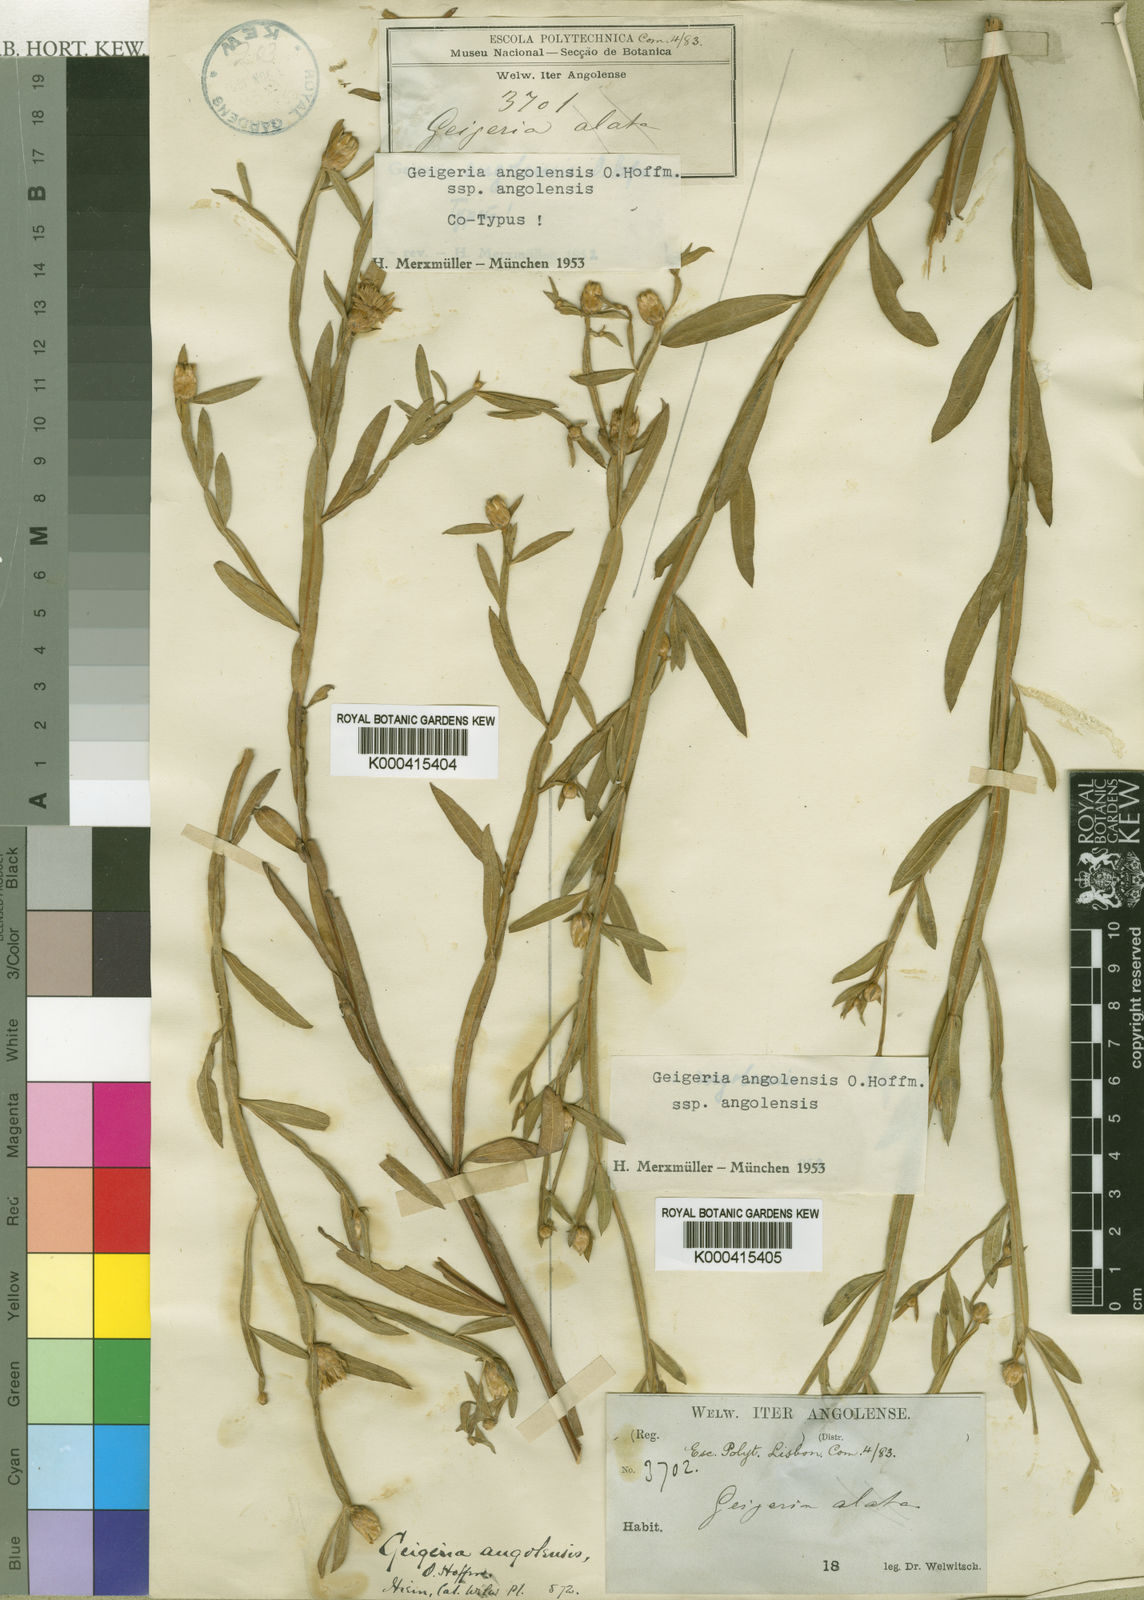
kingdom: Plantae
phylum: Tracheophyta
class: Magnoliopsida
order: Asterales
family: Asteraceae
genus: Geigeria
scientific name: Geigeria angolensis
